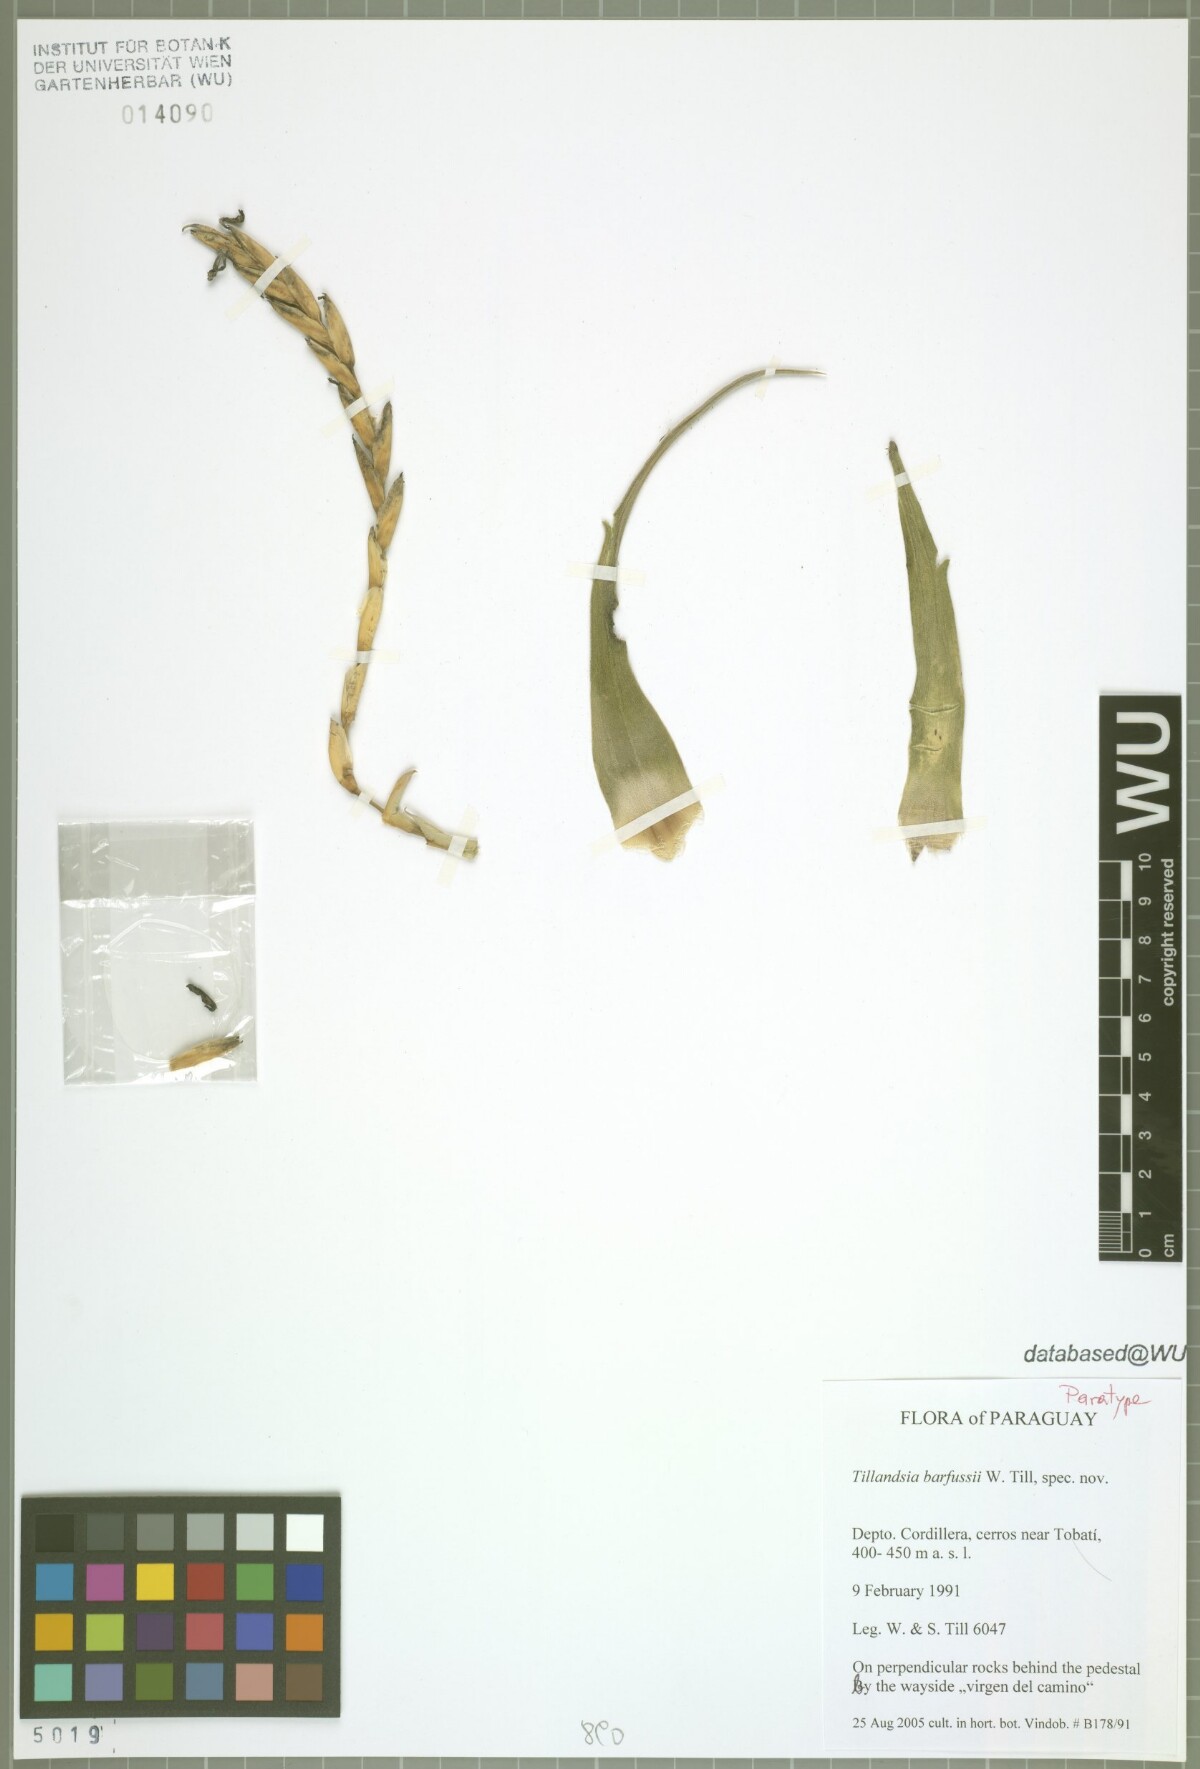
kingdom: Plantae
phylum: Tracheophyta
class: Liliopsida
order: Poales
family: Bromeliaceae
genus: Tillandsia
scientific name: Tillandsia barfussii
